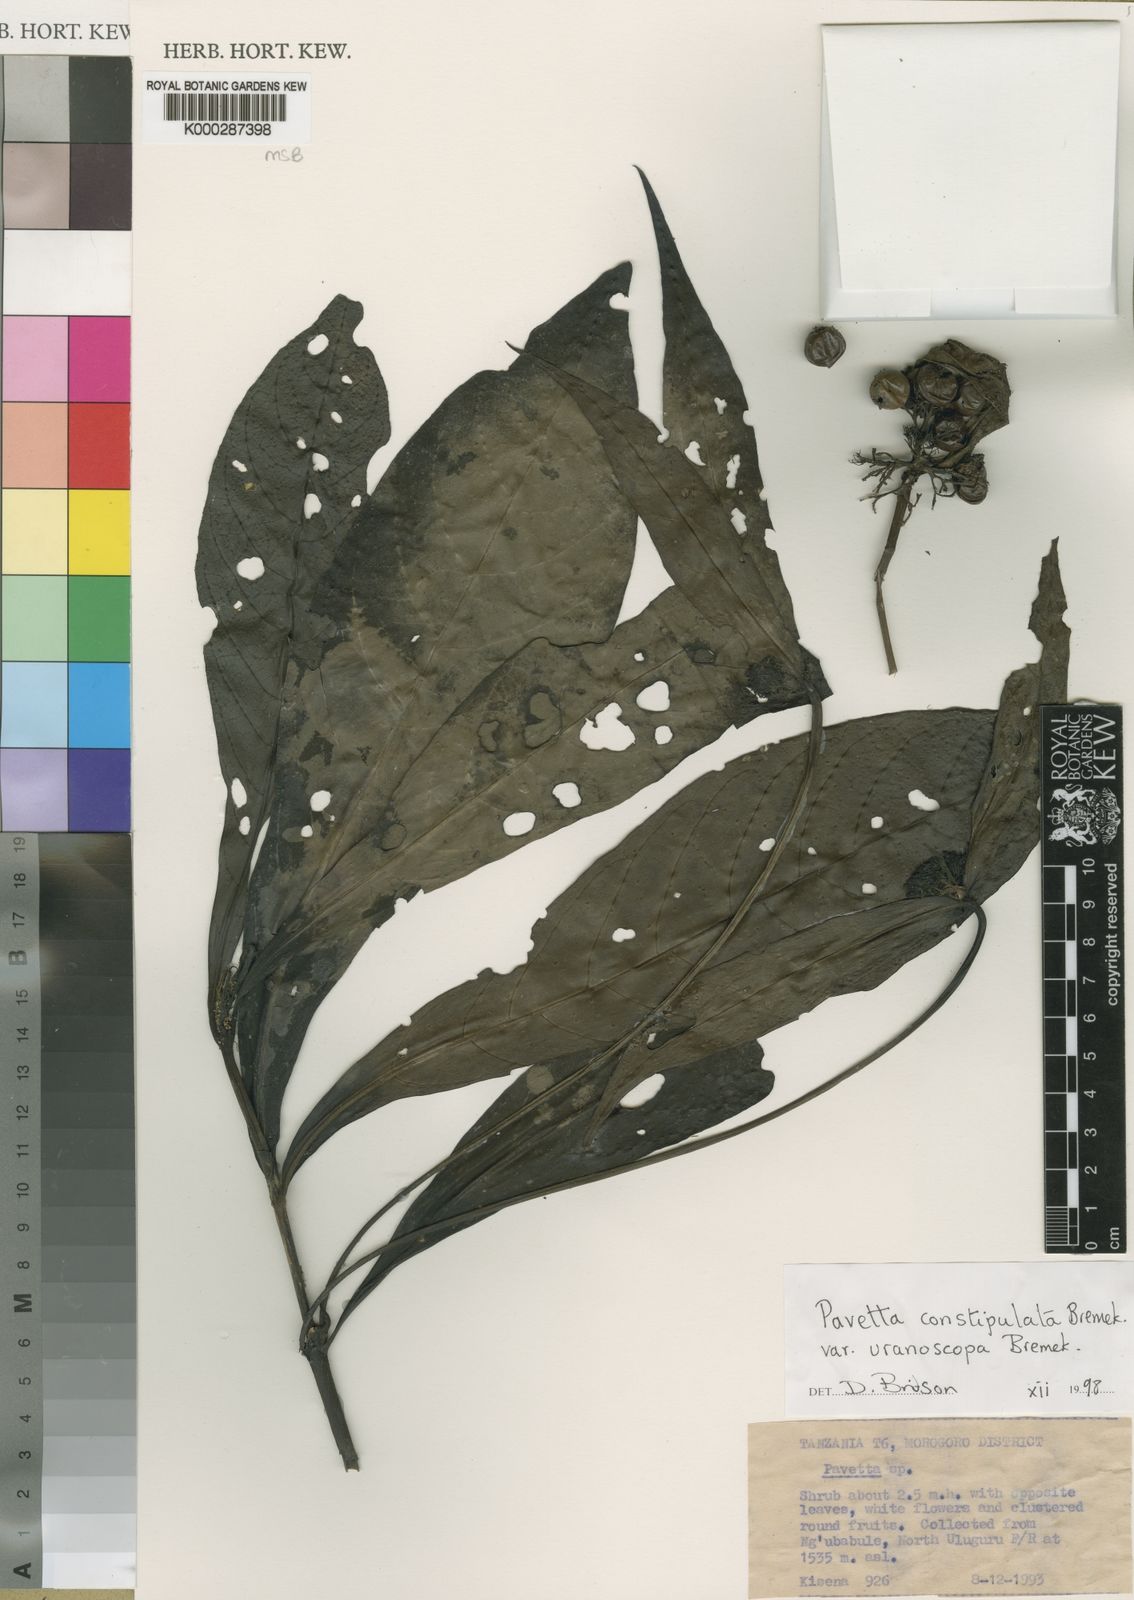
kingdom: Plantae
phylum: Tracheophyta
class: Magnoliopsida
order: Gentianales
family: Rubiaceae
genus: Pavetta
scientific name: Pavetta constipulata
